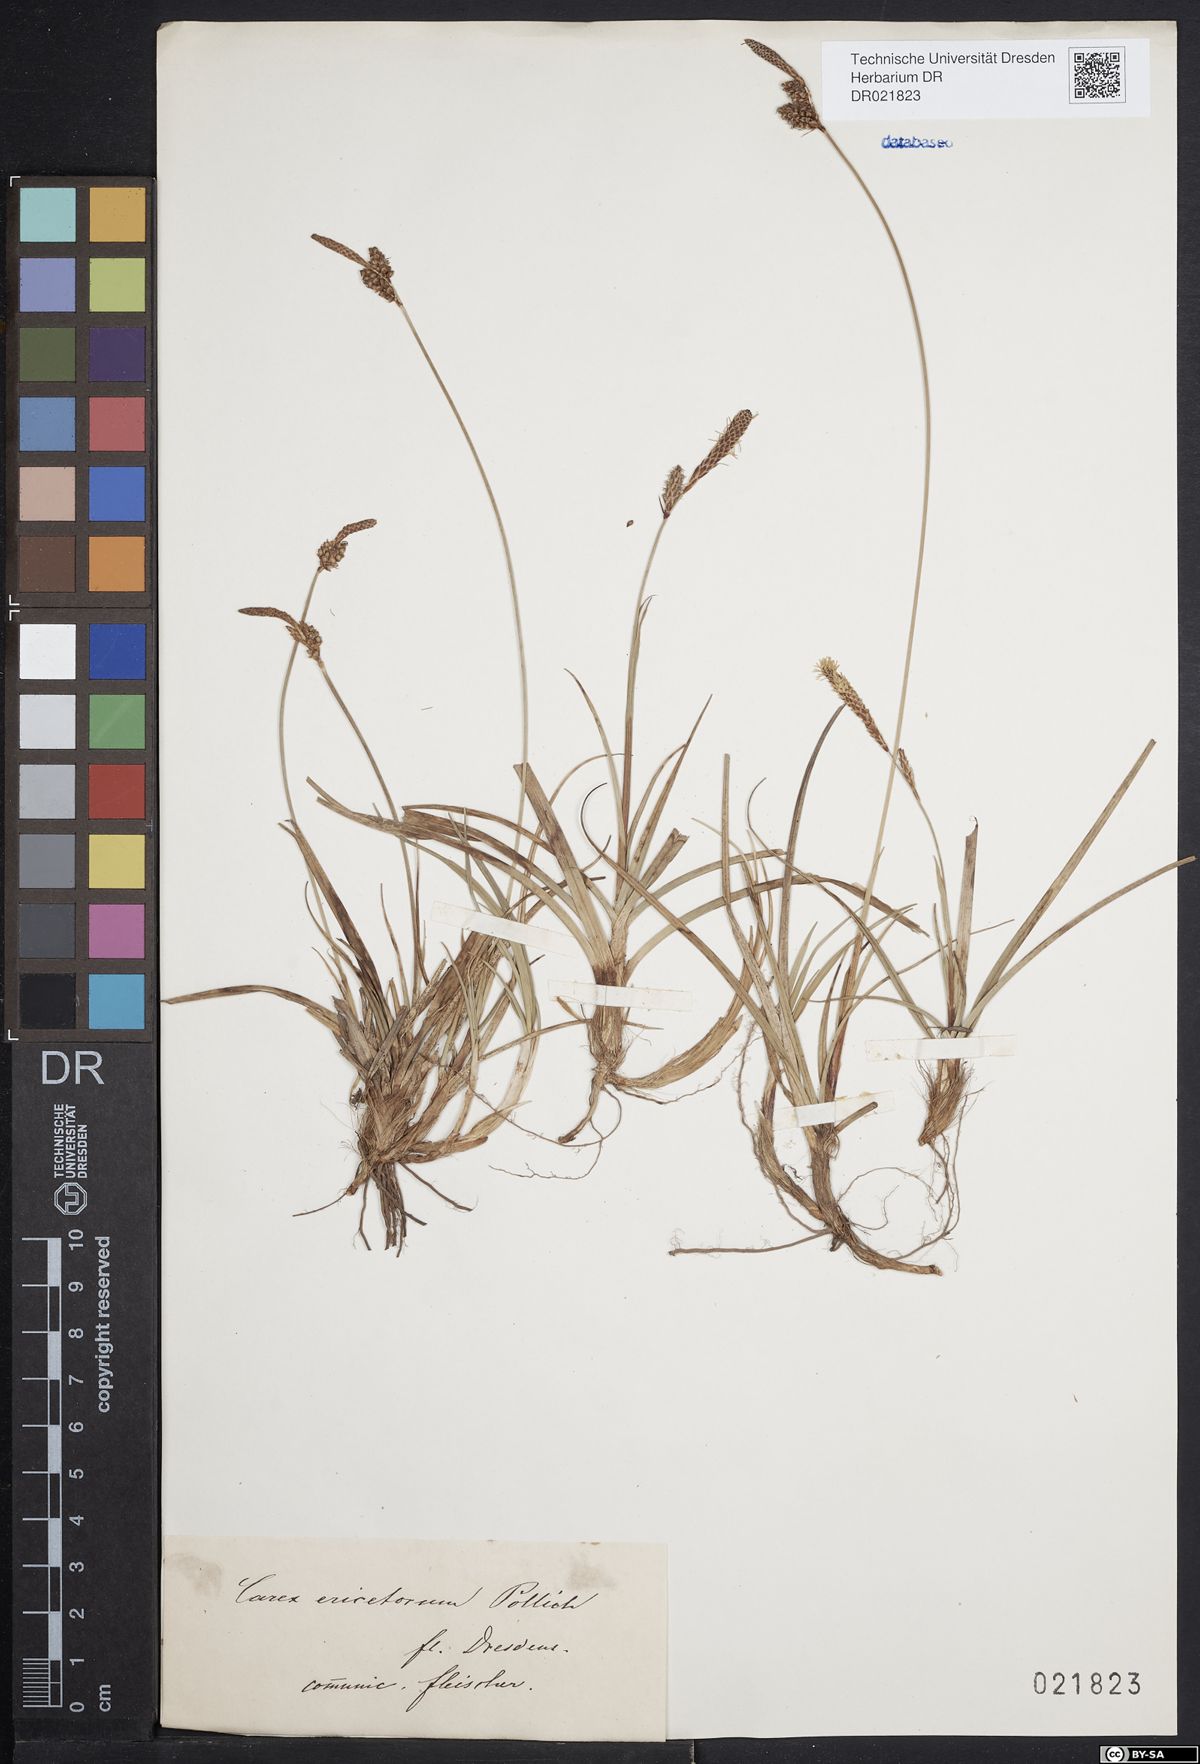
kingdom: Plantae
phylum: Tracheophyta
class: Liliopsida
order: Poales
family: Cyperaceae
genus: Carex
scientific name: Carex ericetorum
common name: Rare spring-sedge
